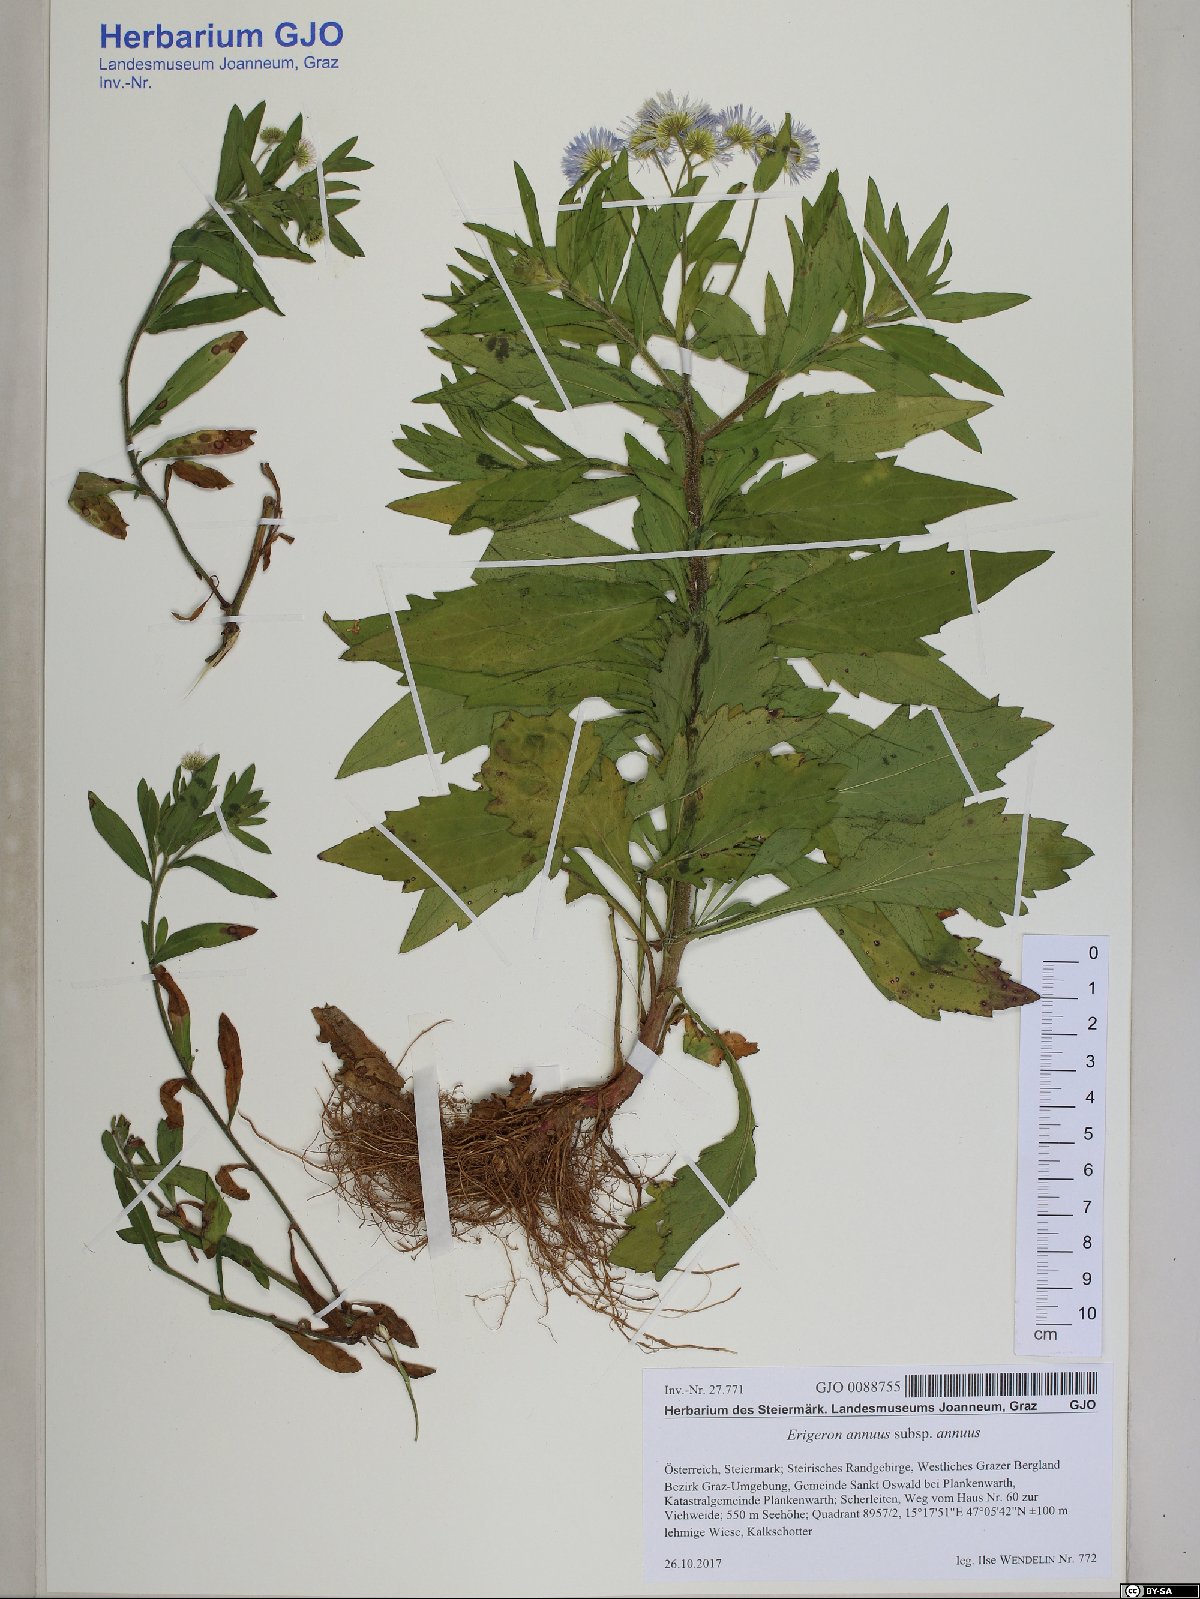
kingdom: Plantae
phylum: Tracheophyta
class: Magnoliopsida
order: Asterales
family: Asteraceae
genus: Erigeron
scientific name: Erigeron annuus
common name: Tall fleabane
